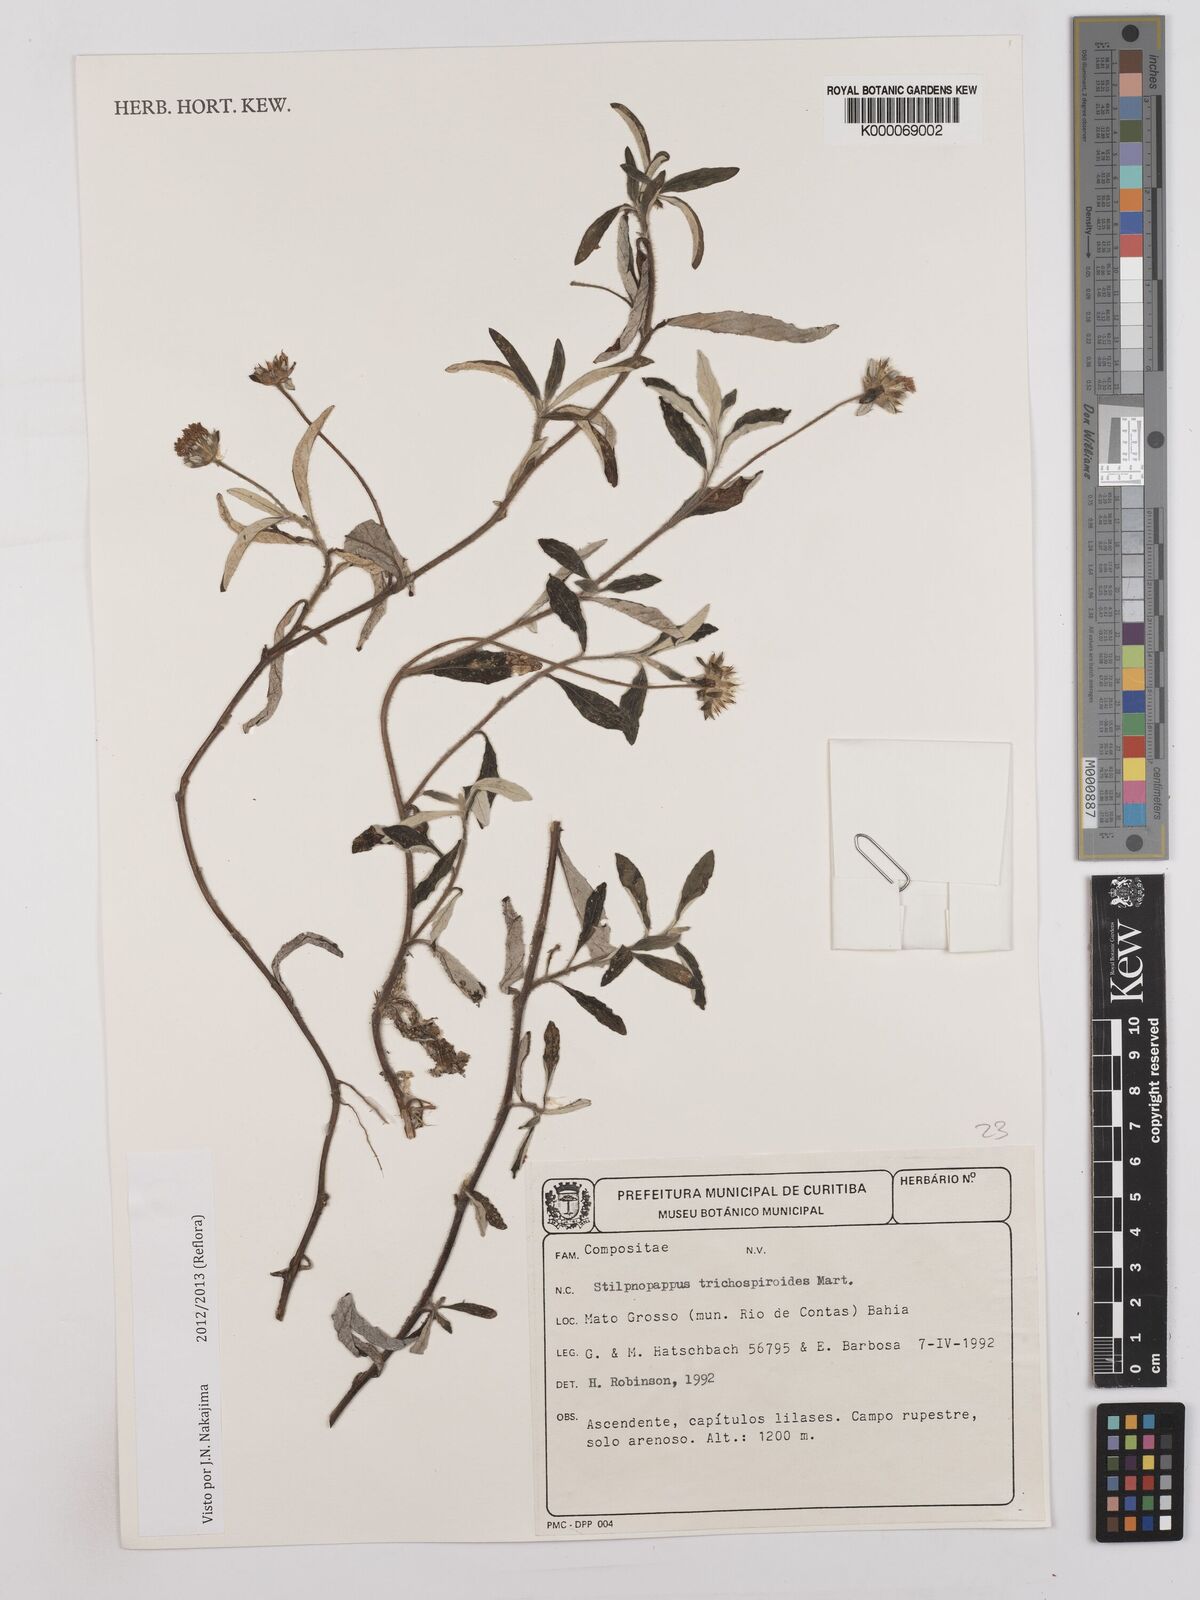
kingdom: Plantae
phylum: Tracheophyta
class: Magnoliopsida
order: Asterales
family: Asteraceae
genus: Stilpnopappus
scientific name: Stilpnopappus
